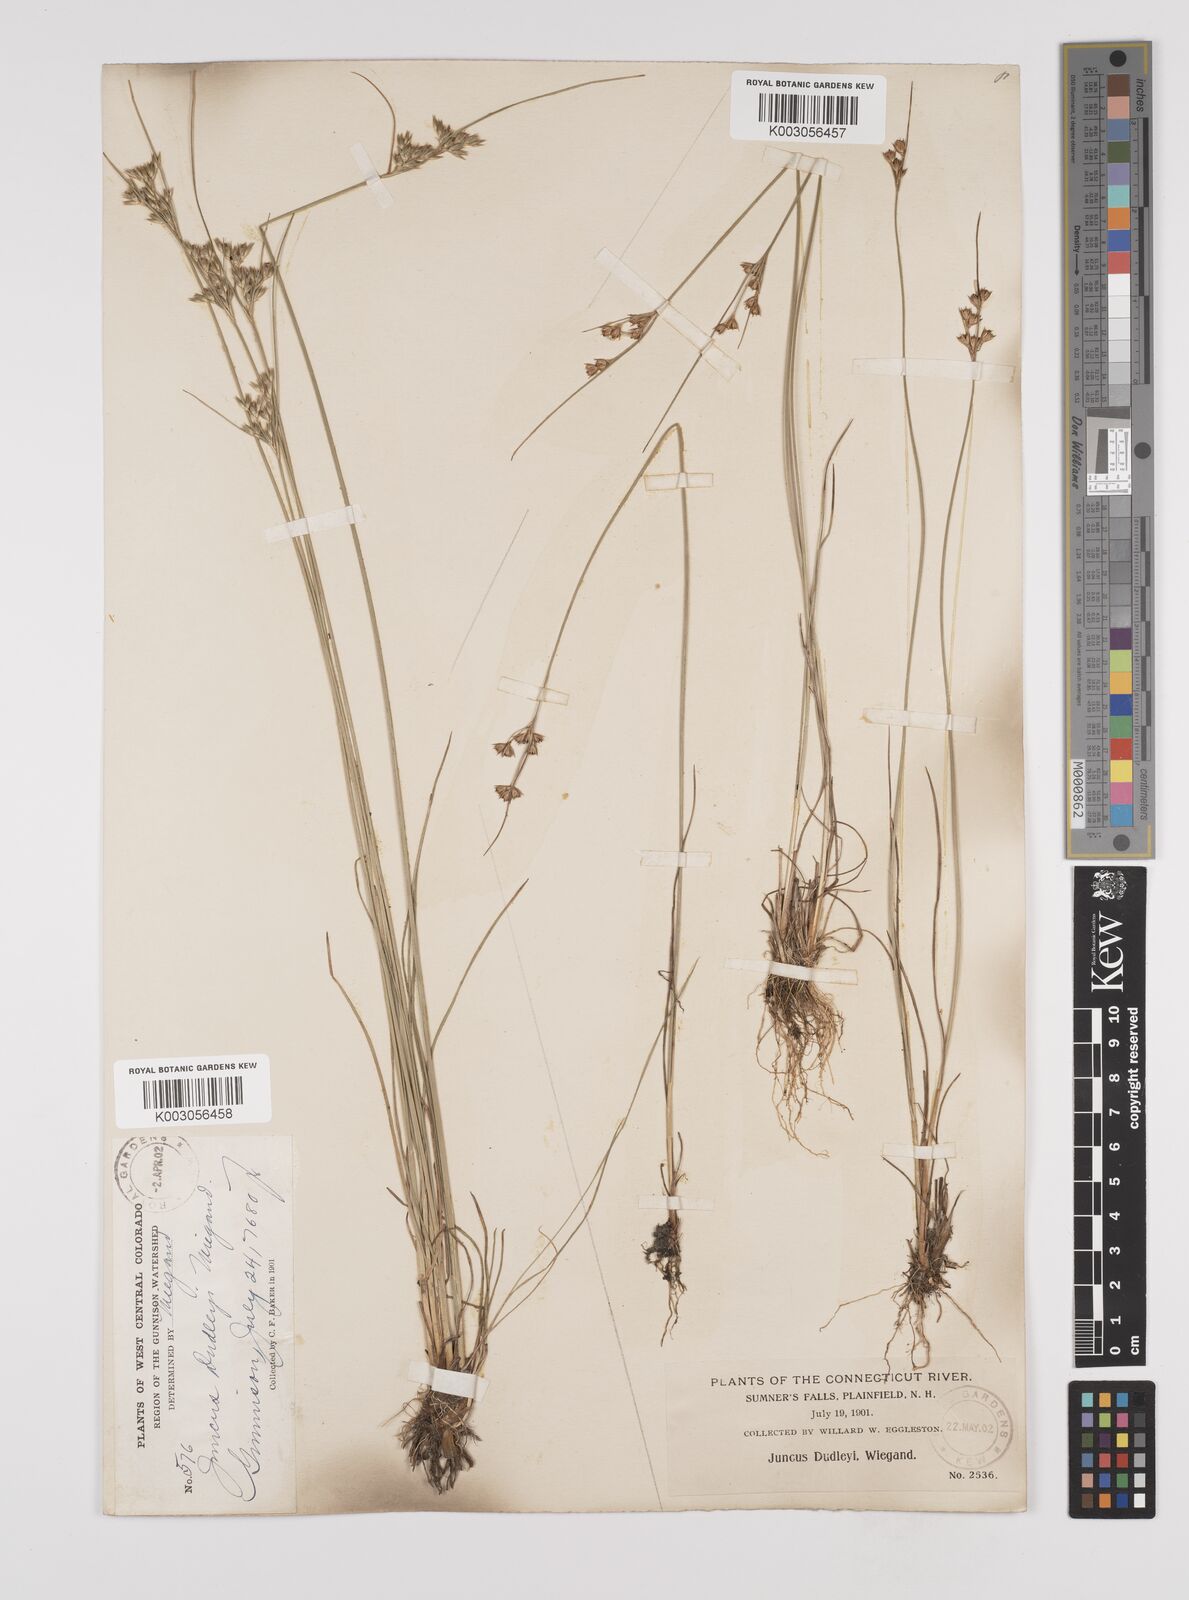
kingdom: Plantae
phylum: Tracheophyta
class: Liliopsida
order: Poales
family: Juncaceae
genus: Juncus
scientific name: Juncus dudleyi
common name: Dudley's rush
